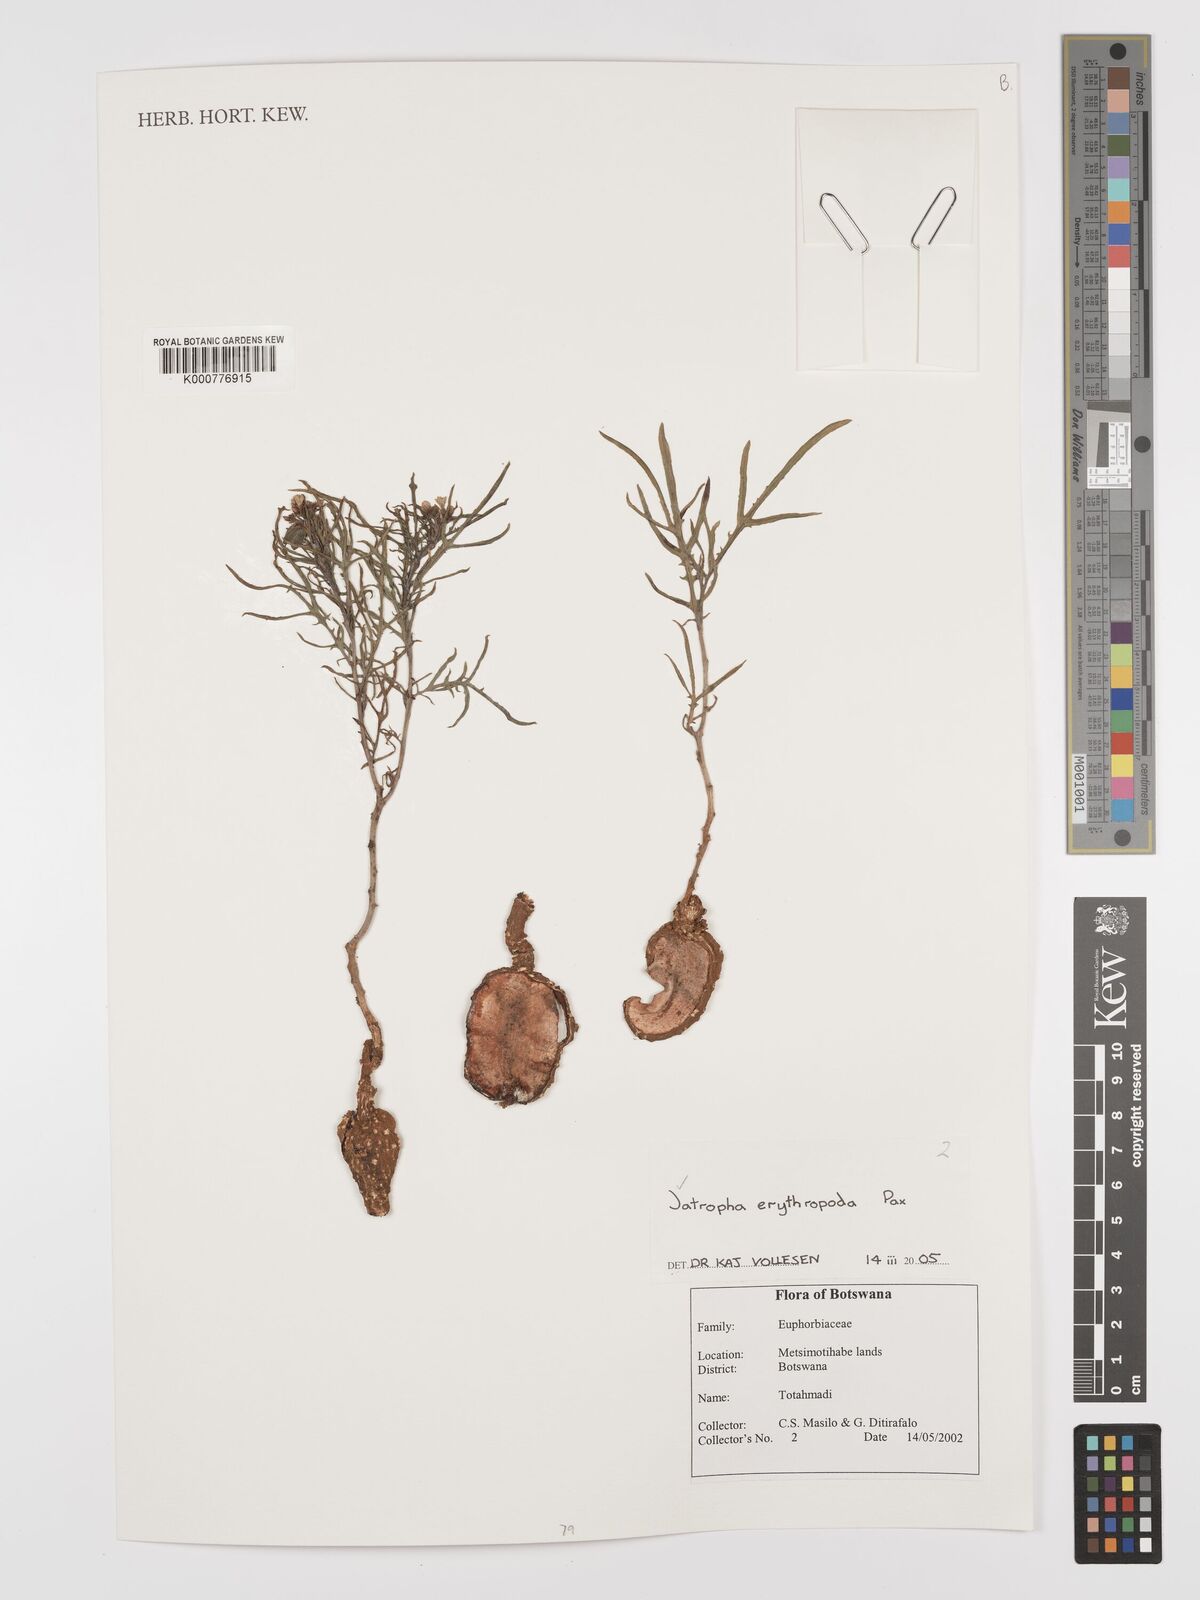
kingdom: Plantae
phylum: Tracheophyta
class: Magnoliopsida
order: Malpighiales
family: Euphorbiaceae
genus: Jatropha
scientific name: Jatropha erythropoda
